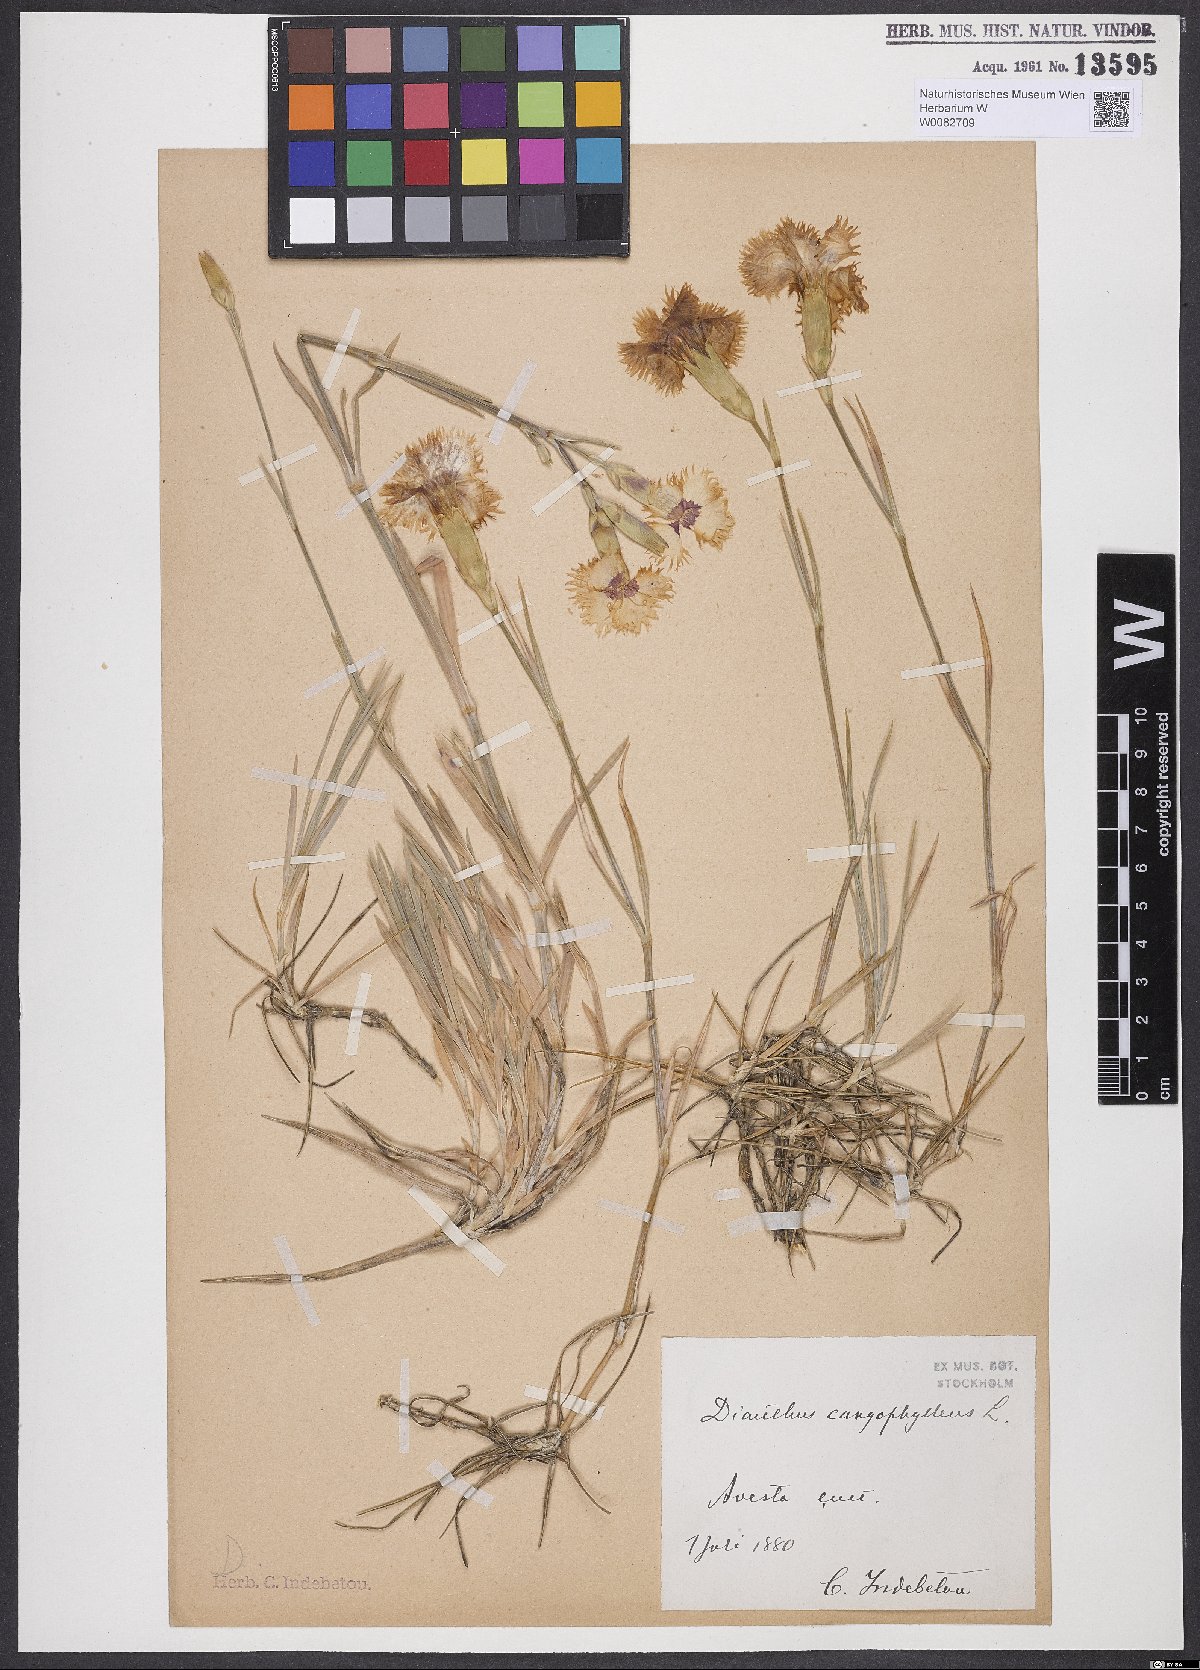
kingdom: Plantae
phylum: Tracheophyta
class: Magnoliopsida
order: Caryophyllales
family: Caryophyllaceae
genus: Dianthus
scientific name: Dianthus caryophyllus
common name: Clove pink
